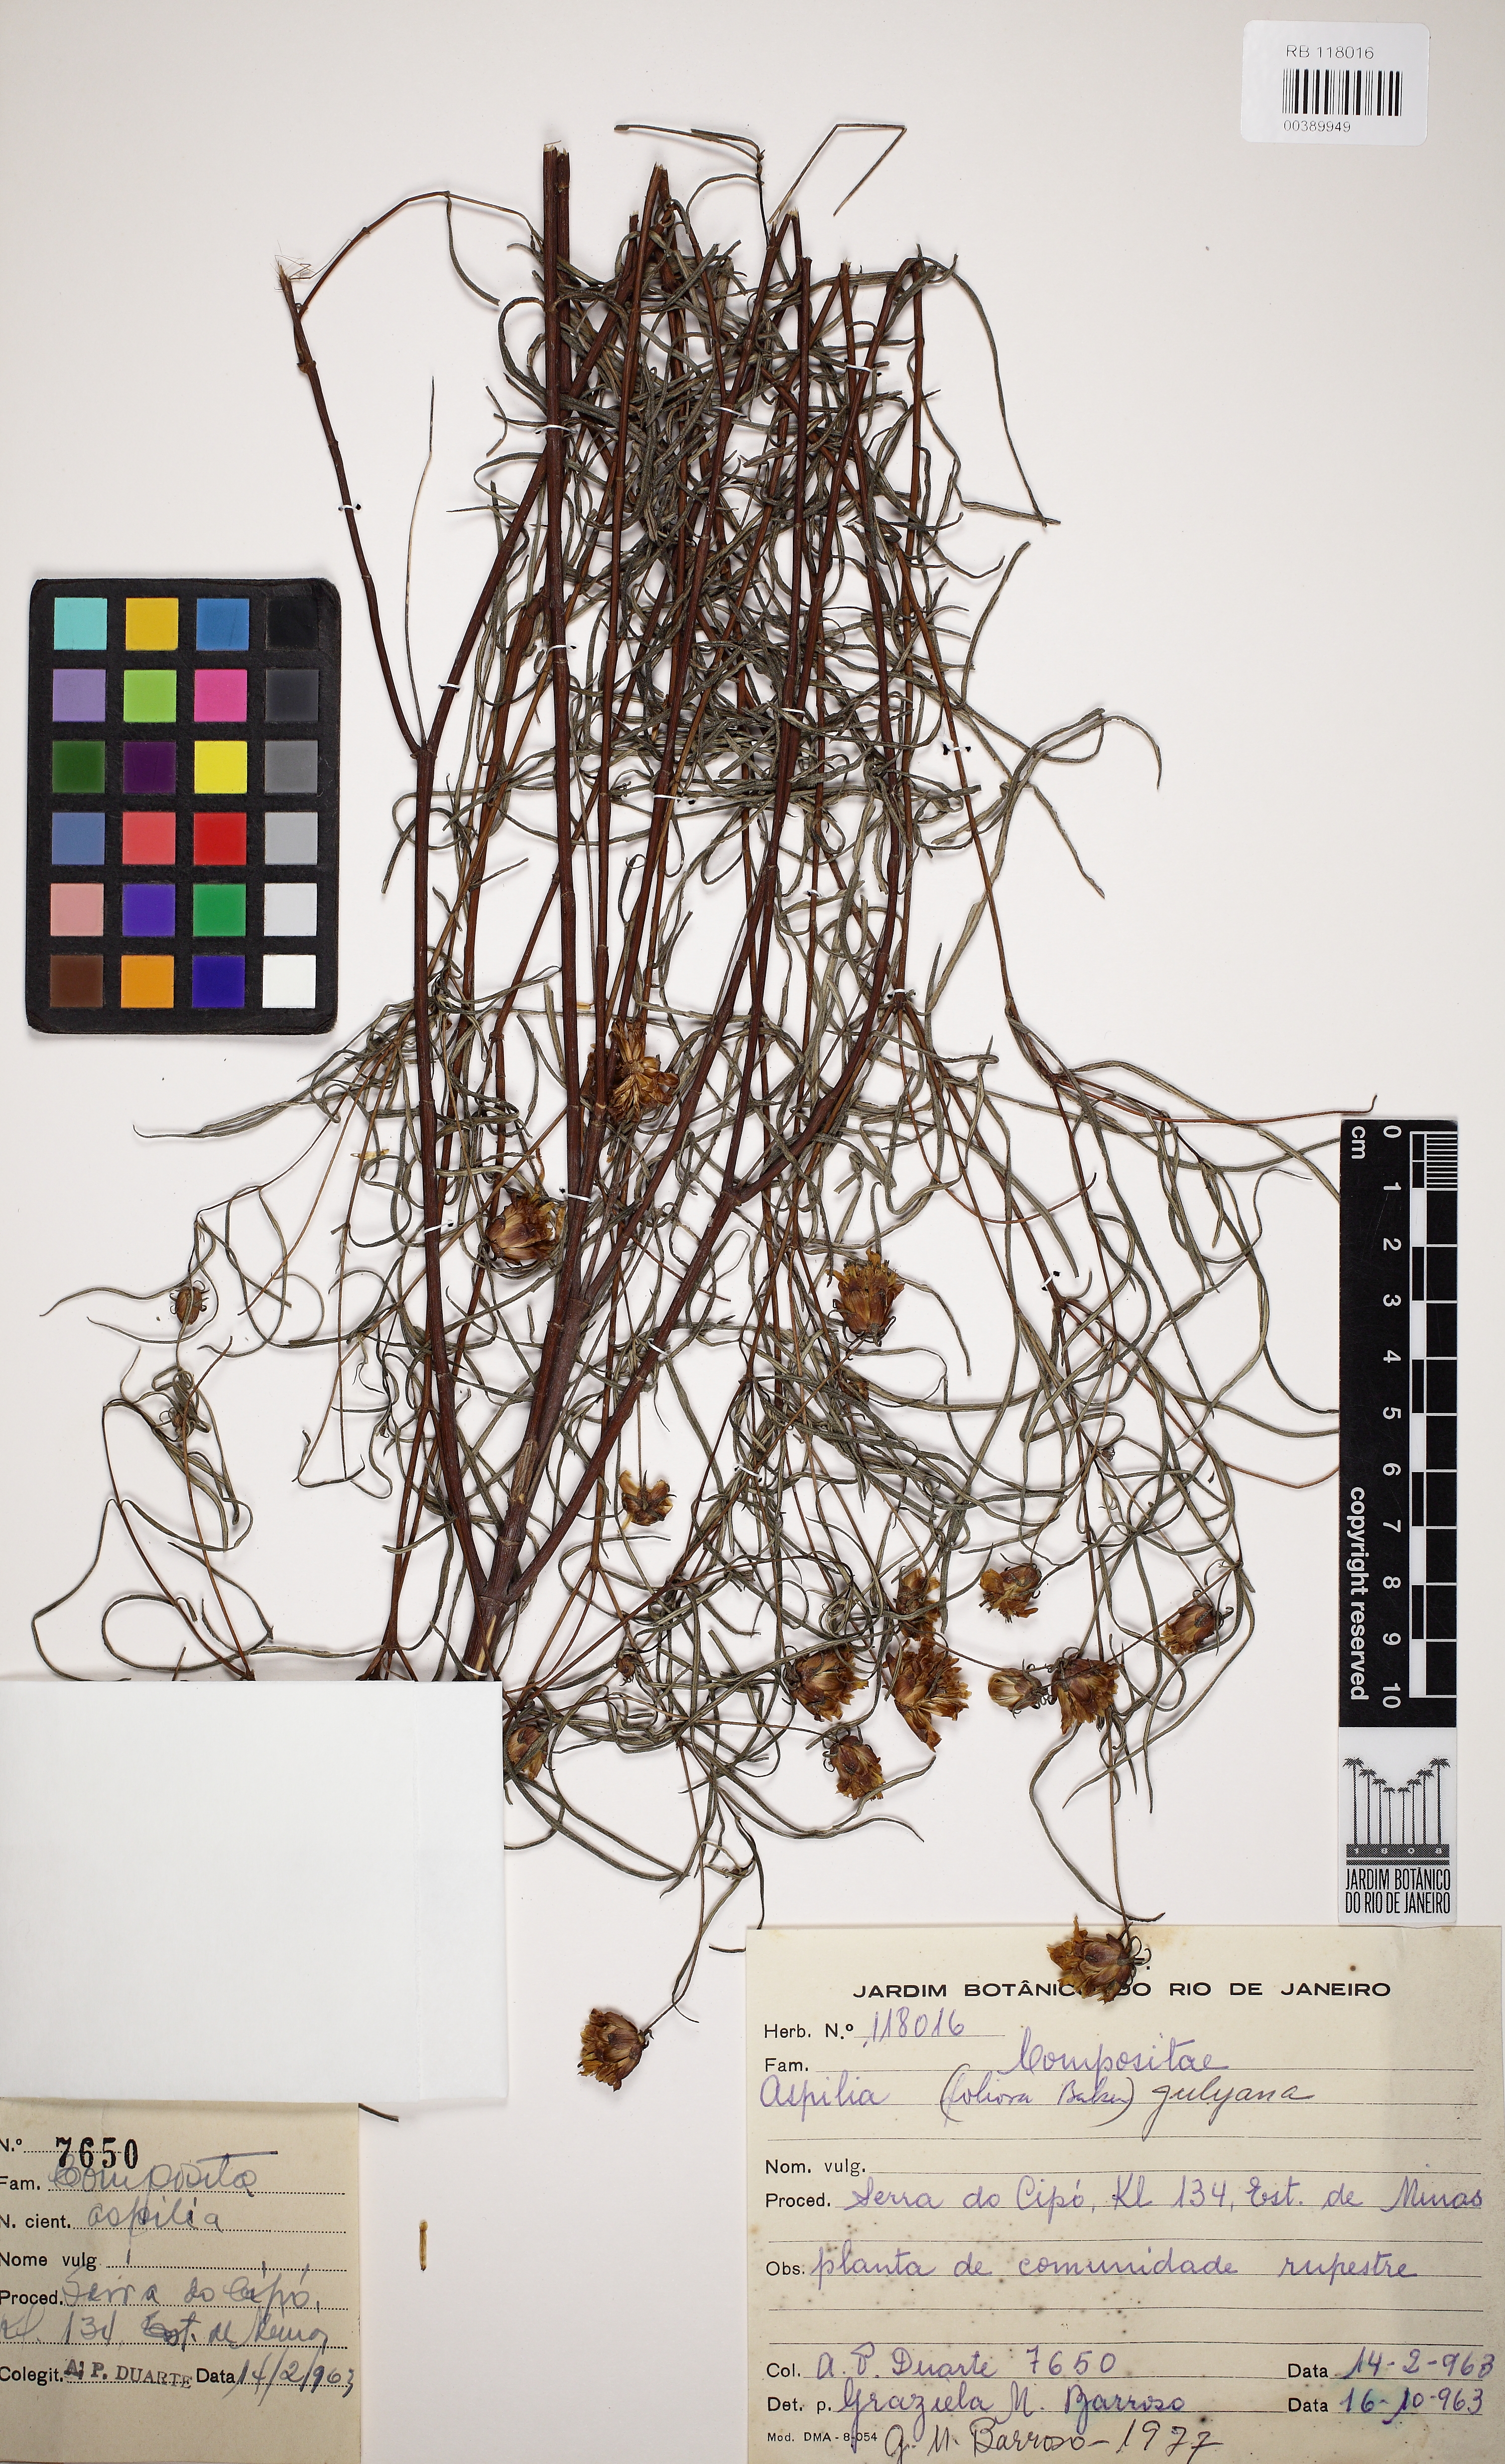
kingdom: Plantae
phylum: Tracheophyta
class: Magnoliopsida
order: Asterales
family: Asteraceae
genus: Aspilia
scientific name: Aspilia jolyana
